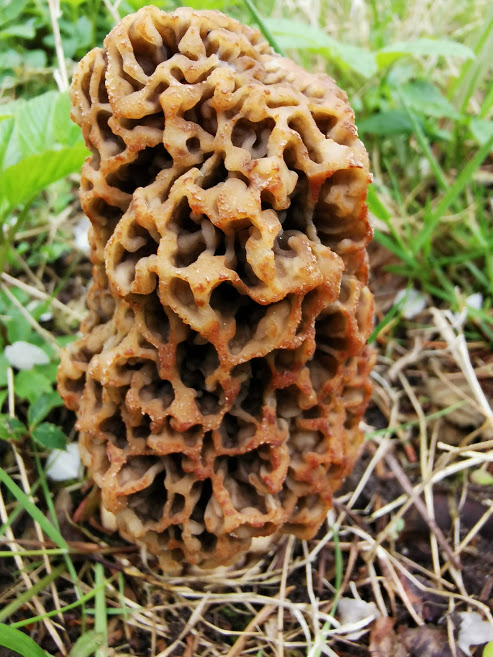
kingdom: Fungi
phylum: Ascomycota
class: Pezizomycetes
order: Pezizales
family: Morchellaceae
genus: Morchella
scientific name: Morchella esculenta
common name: almindelig morkel
